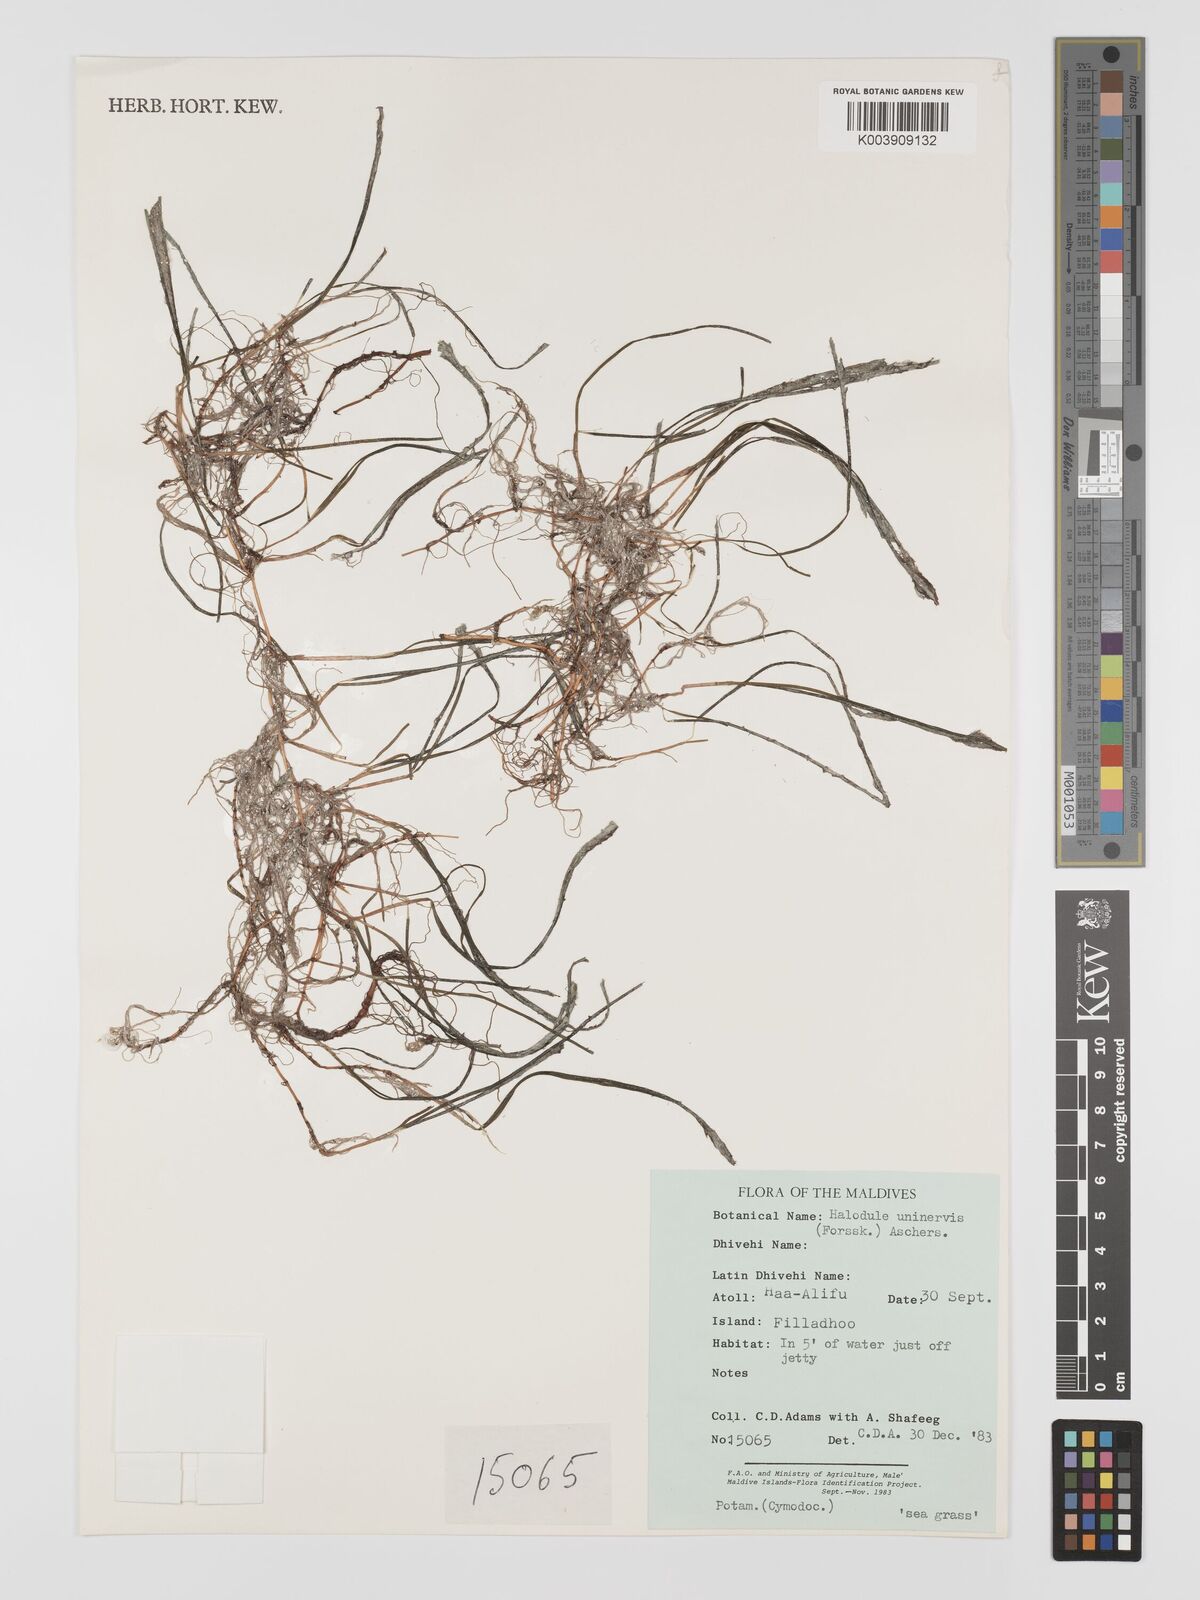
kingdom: Plantae
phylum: Tracheophyta
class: Liliopsida
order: Alismatales
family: Cymodoceaceae
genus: Halodule
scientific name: Halodule uninervis
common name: Narrowleaf seagrass
